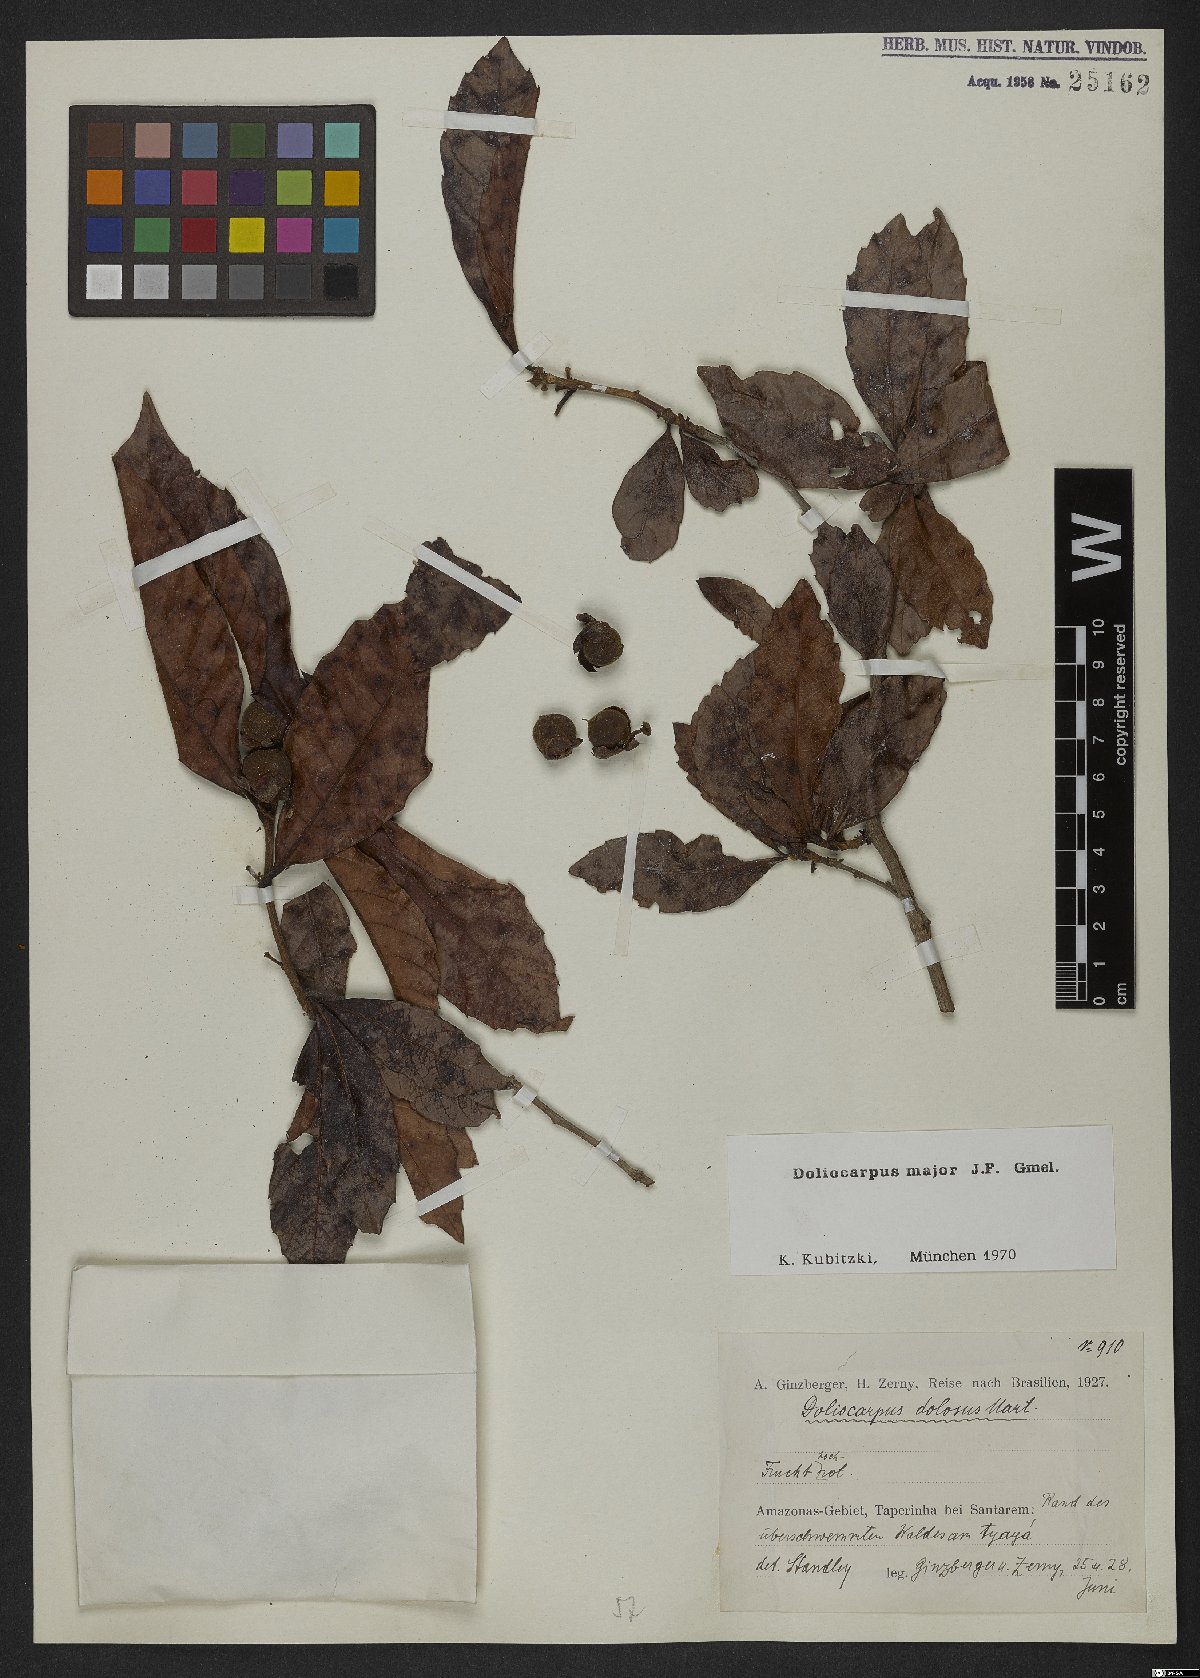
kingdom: Plantae
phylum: Tracheophyta
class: Magnoliopsida
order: Dilleniales
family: Dilleniaceae
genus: Doliocarpus
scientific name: Doliocarpus major
